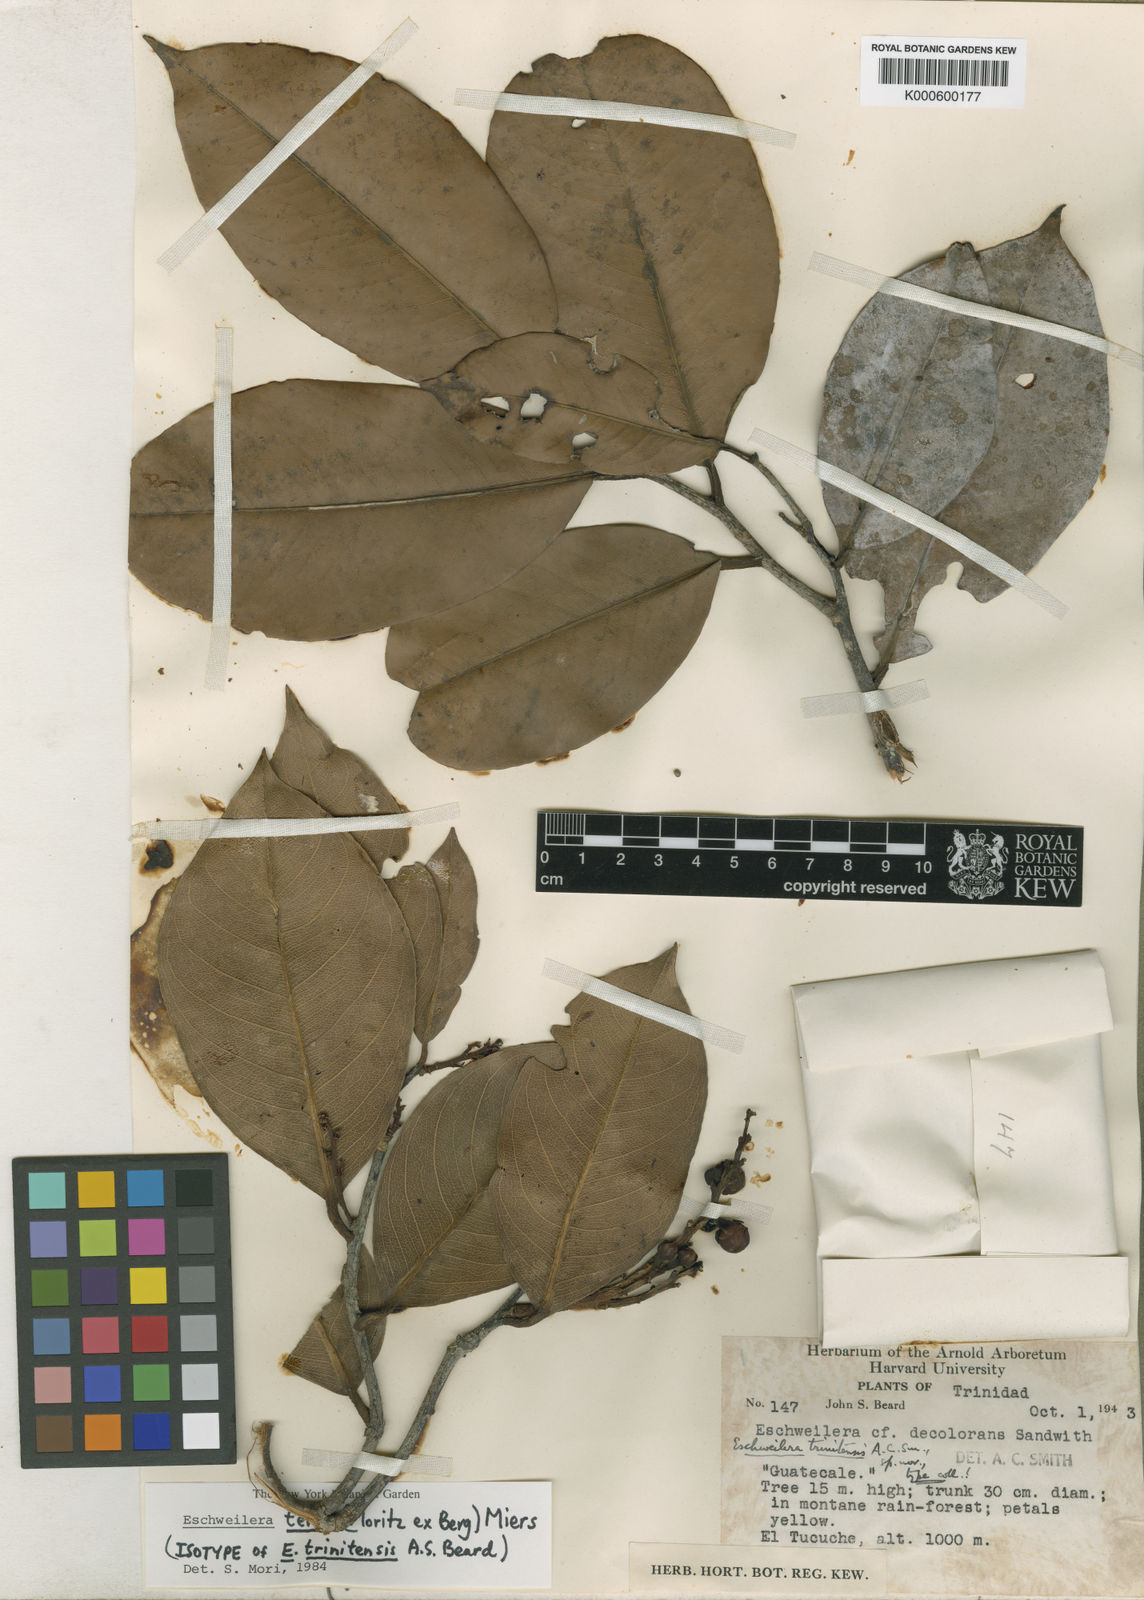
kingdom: Plantae
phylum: Tracheophyta
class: Magnoliopsida
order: Ericales
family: Lecythidaceae
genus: Eschweilera
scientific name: Eschweilera tenax
